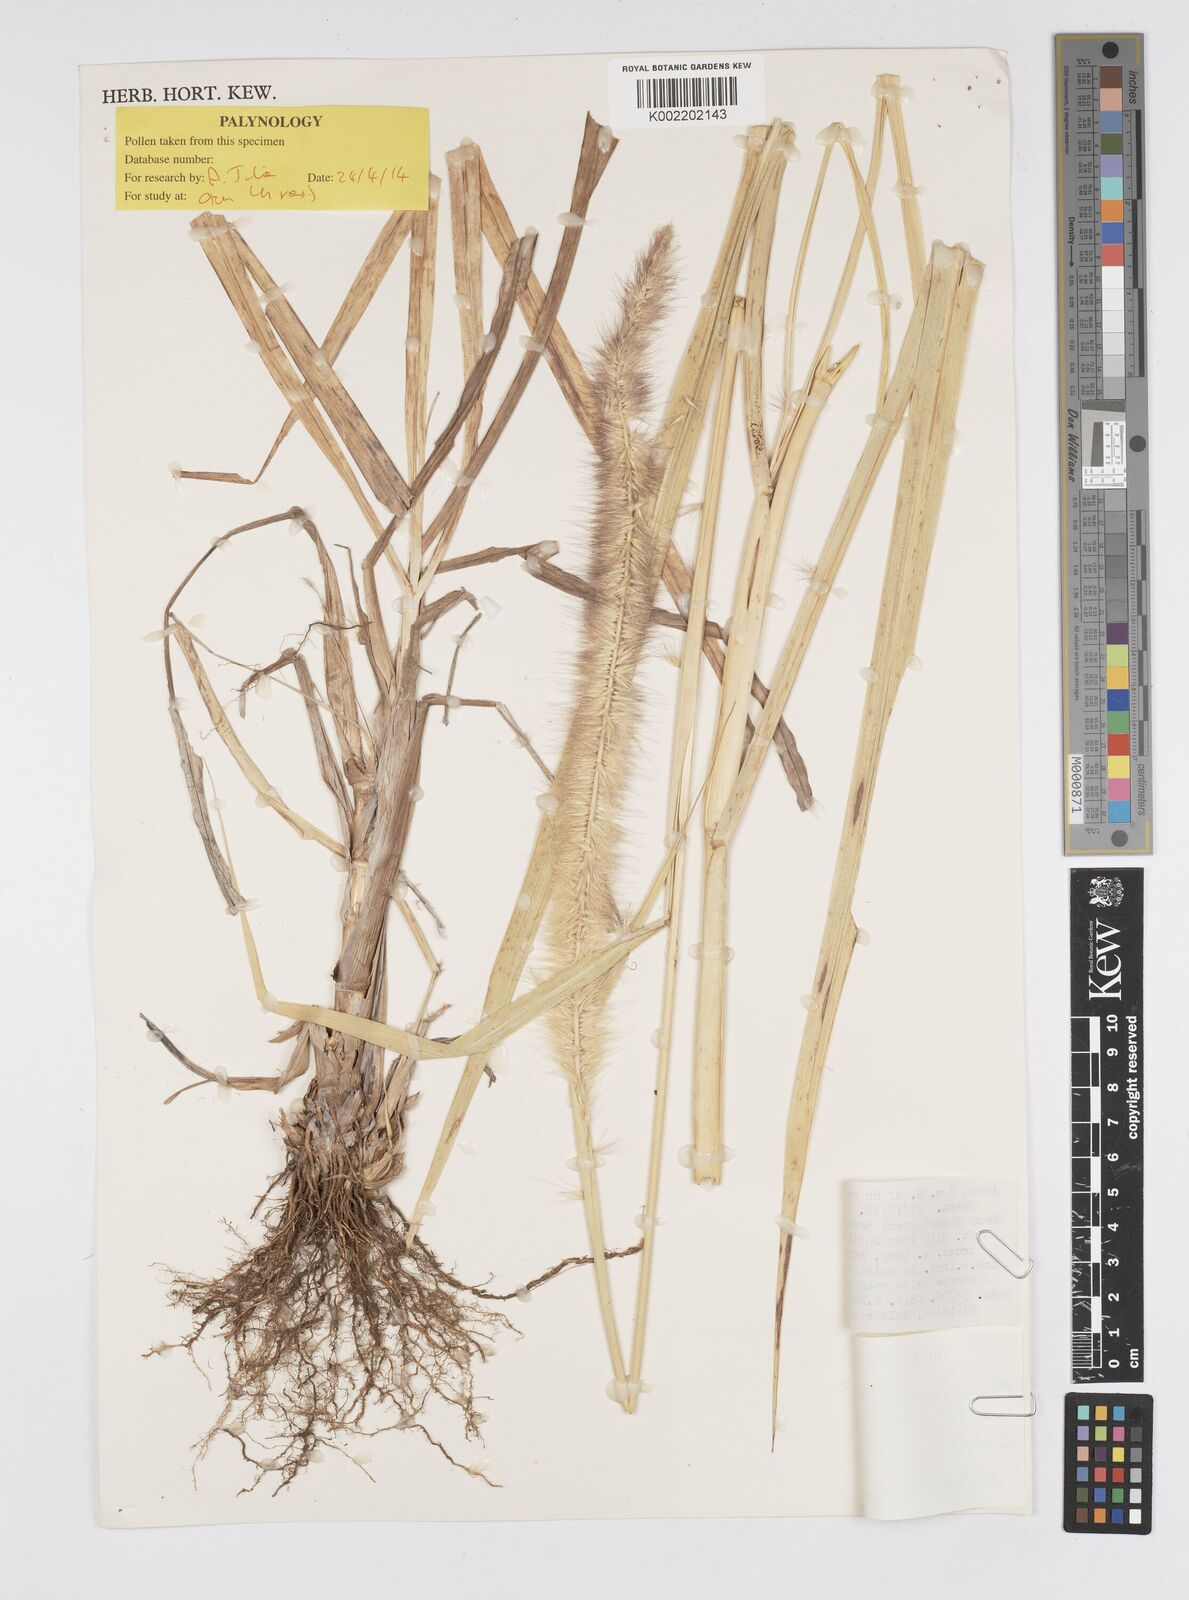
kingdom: Plantae
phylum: Tracheophyta
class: Liliopsida
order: Poales
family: Poaceae
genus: Cenchrus
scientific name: Cenchrus purpureus
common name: Elephant grass
